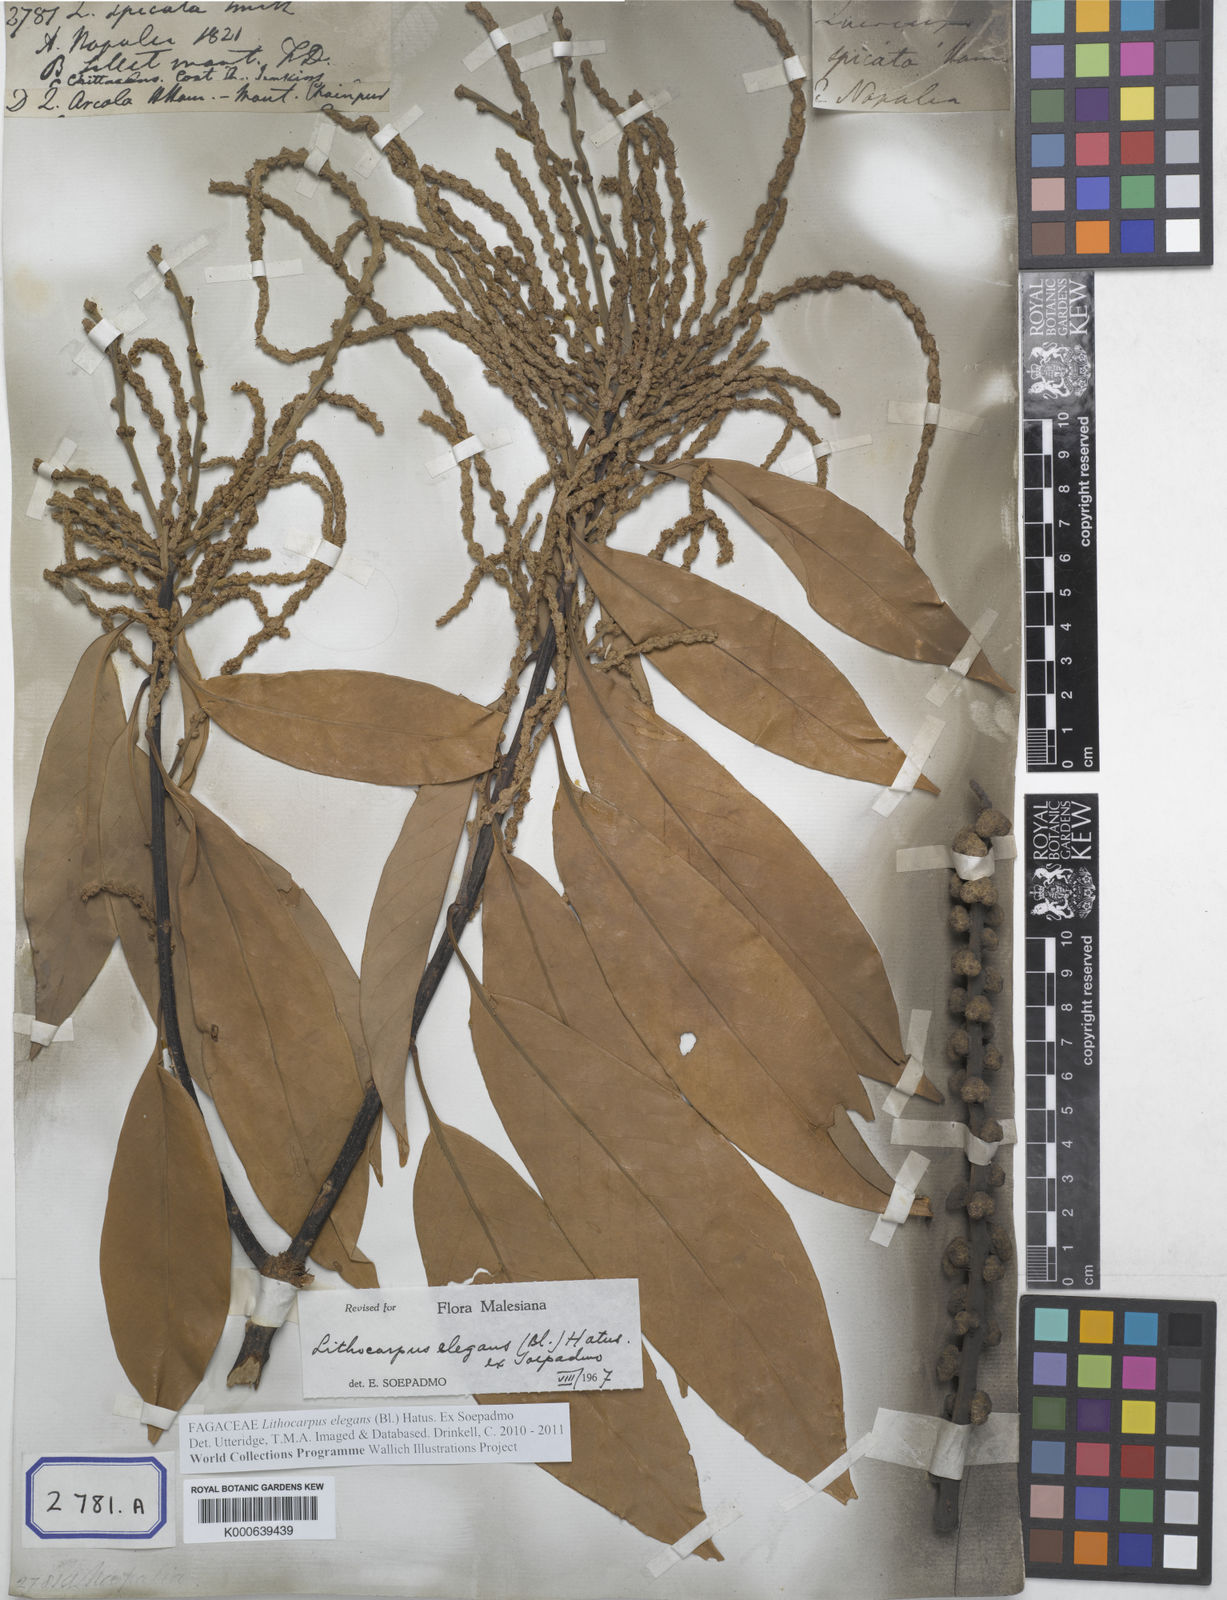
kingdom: Plantae
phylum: Tracheophyta
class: Magnoliopsida
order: Fagales
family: Fagaceae
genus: Quercus
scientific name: Quercus
